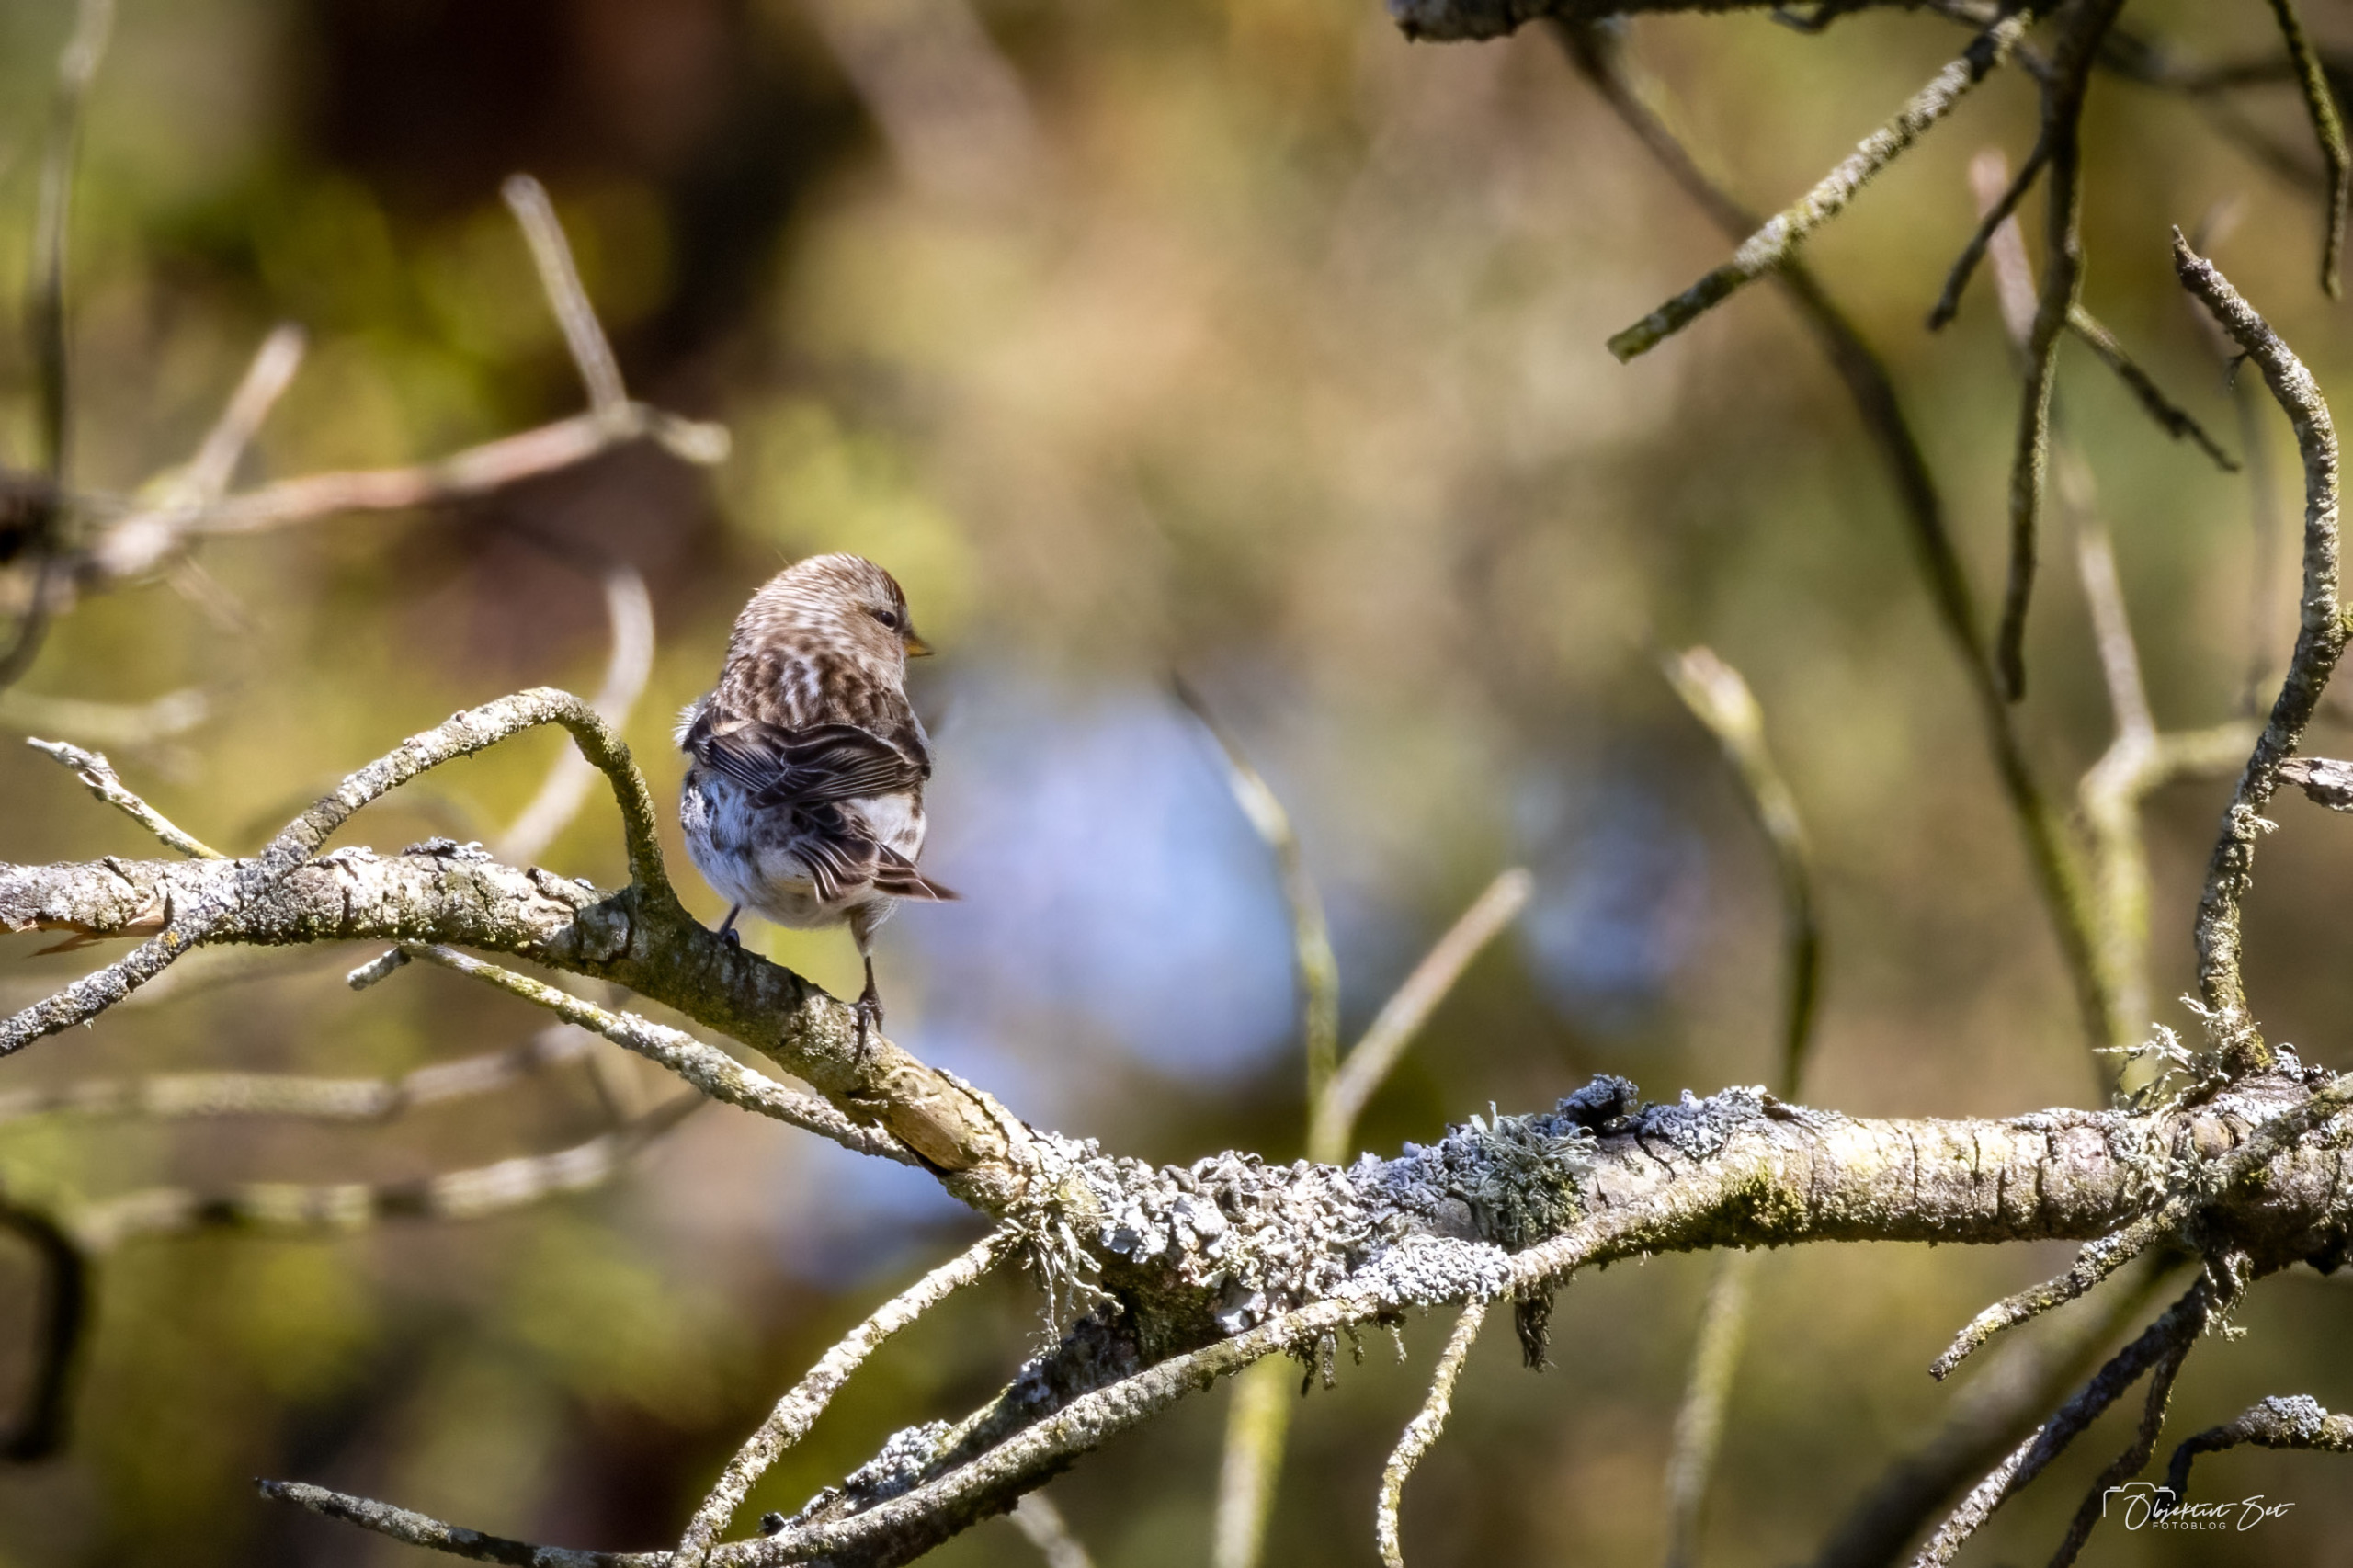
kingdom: Animalia
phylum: Chordata
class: Aves
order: Passeriformes
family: Fringillidae
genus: Acanthis
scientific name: Acanthis flammea
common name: Lille gråsisken
